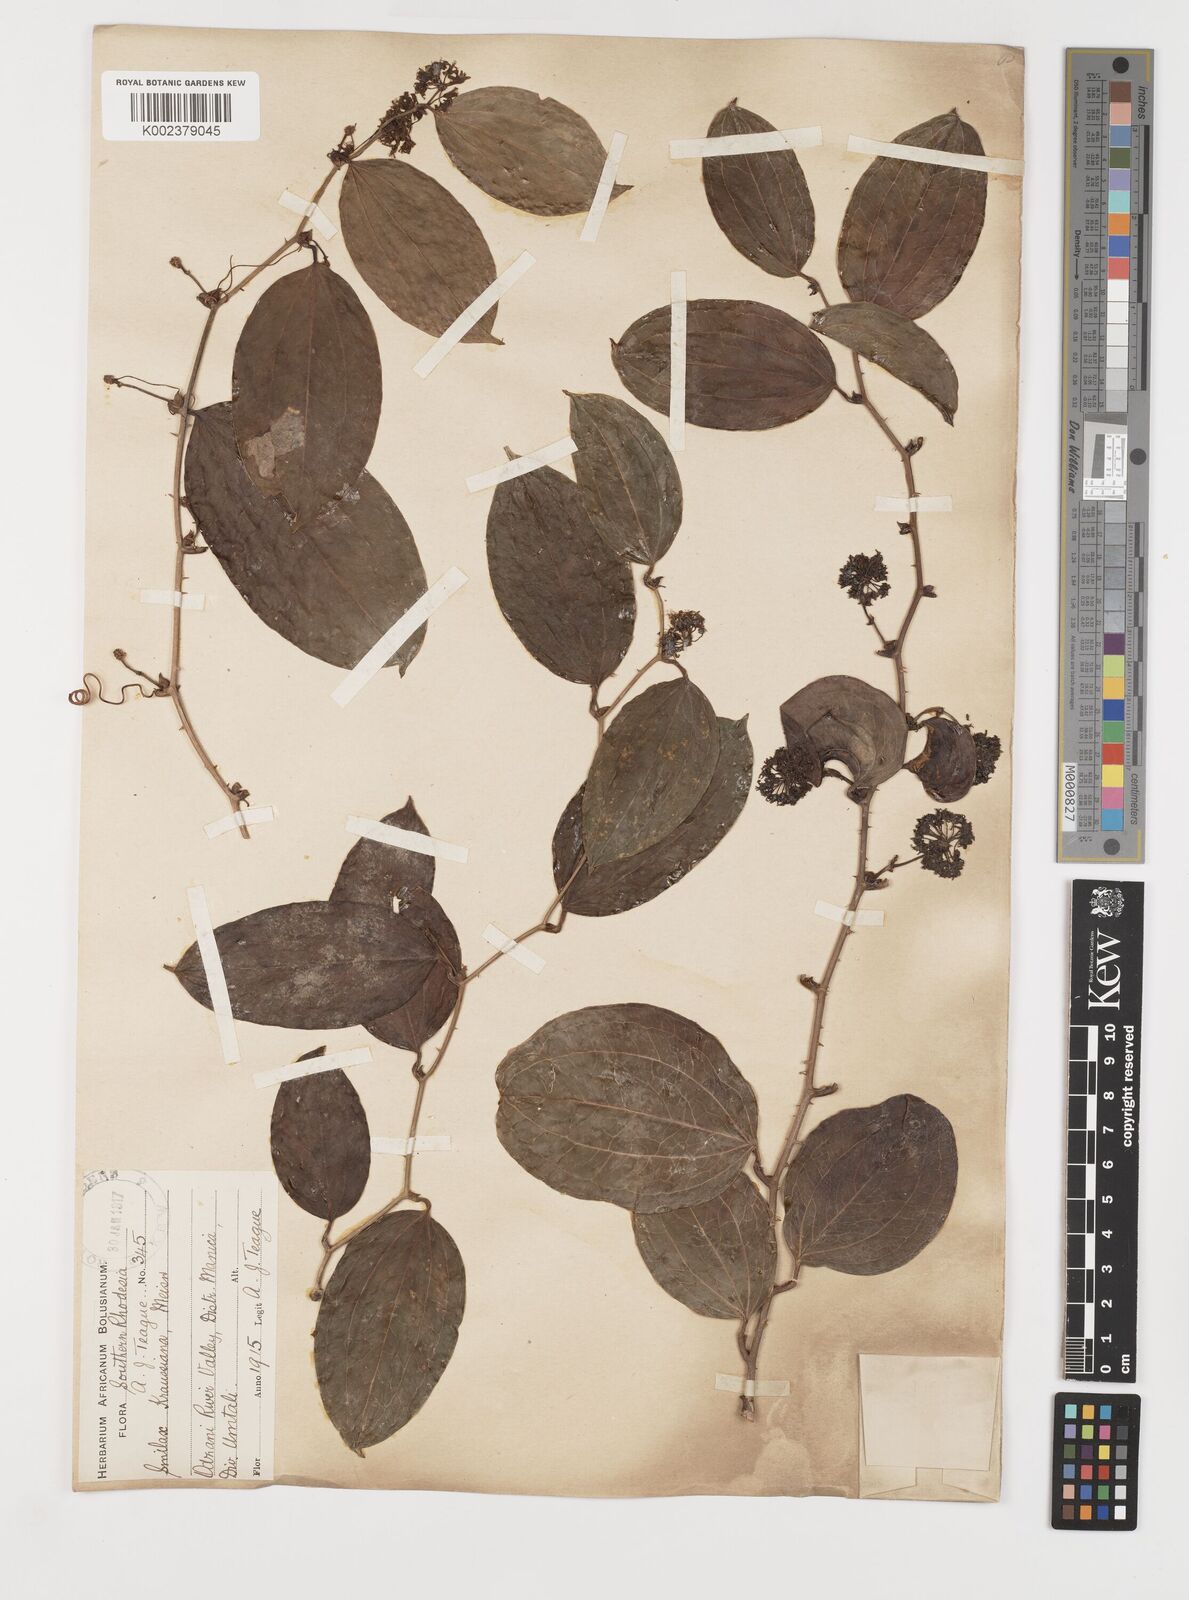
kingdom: Plantae
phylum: Tracheophyta
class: Liliopsida
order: Liliales
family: Smilacaceae
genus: Smilax
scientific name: Smilax anceps
